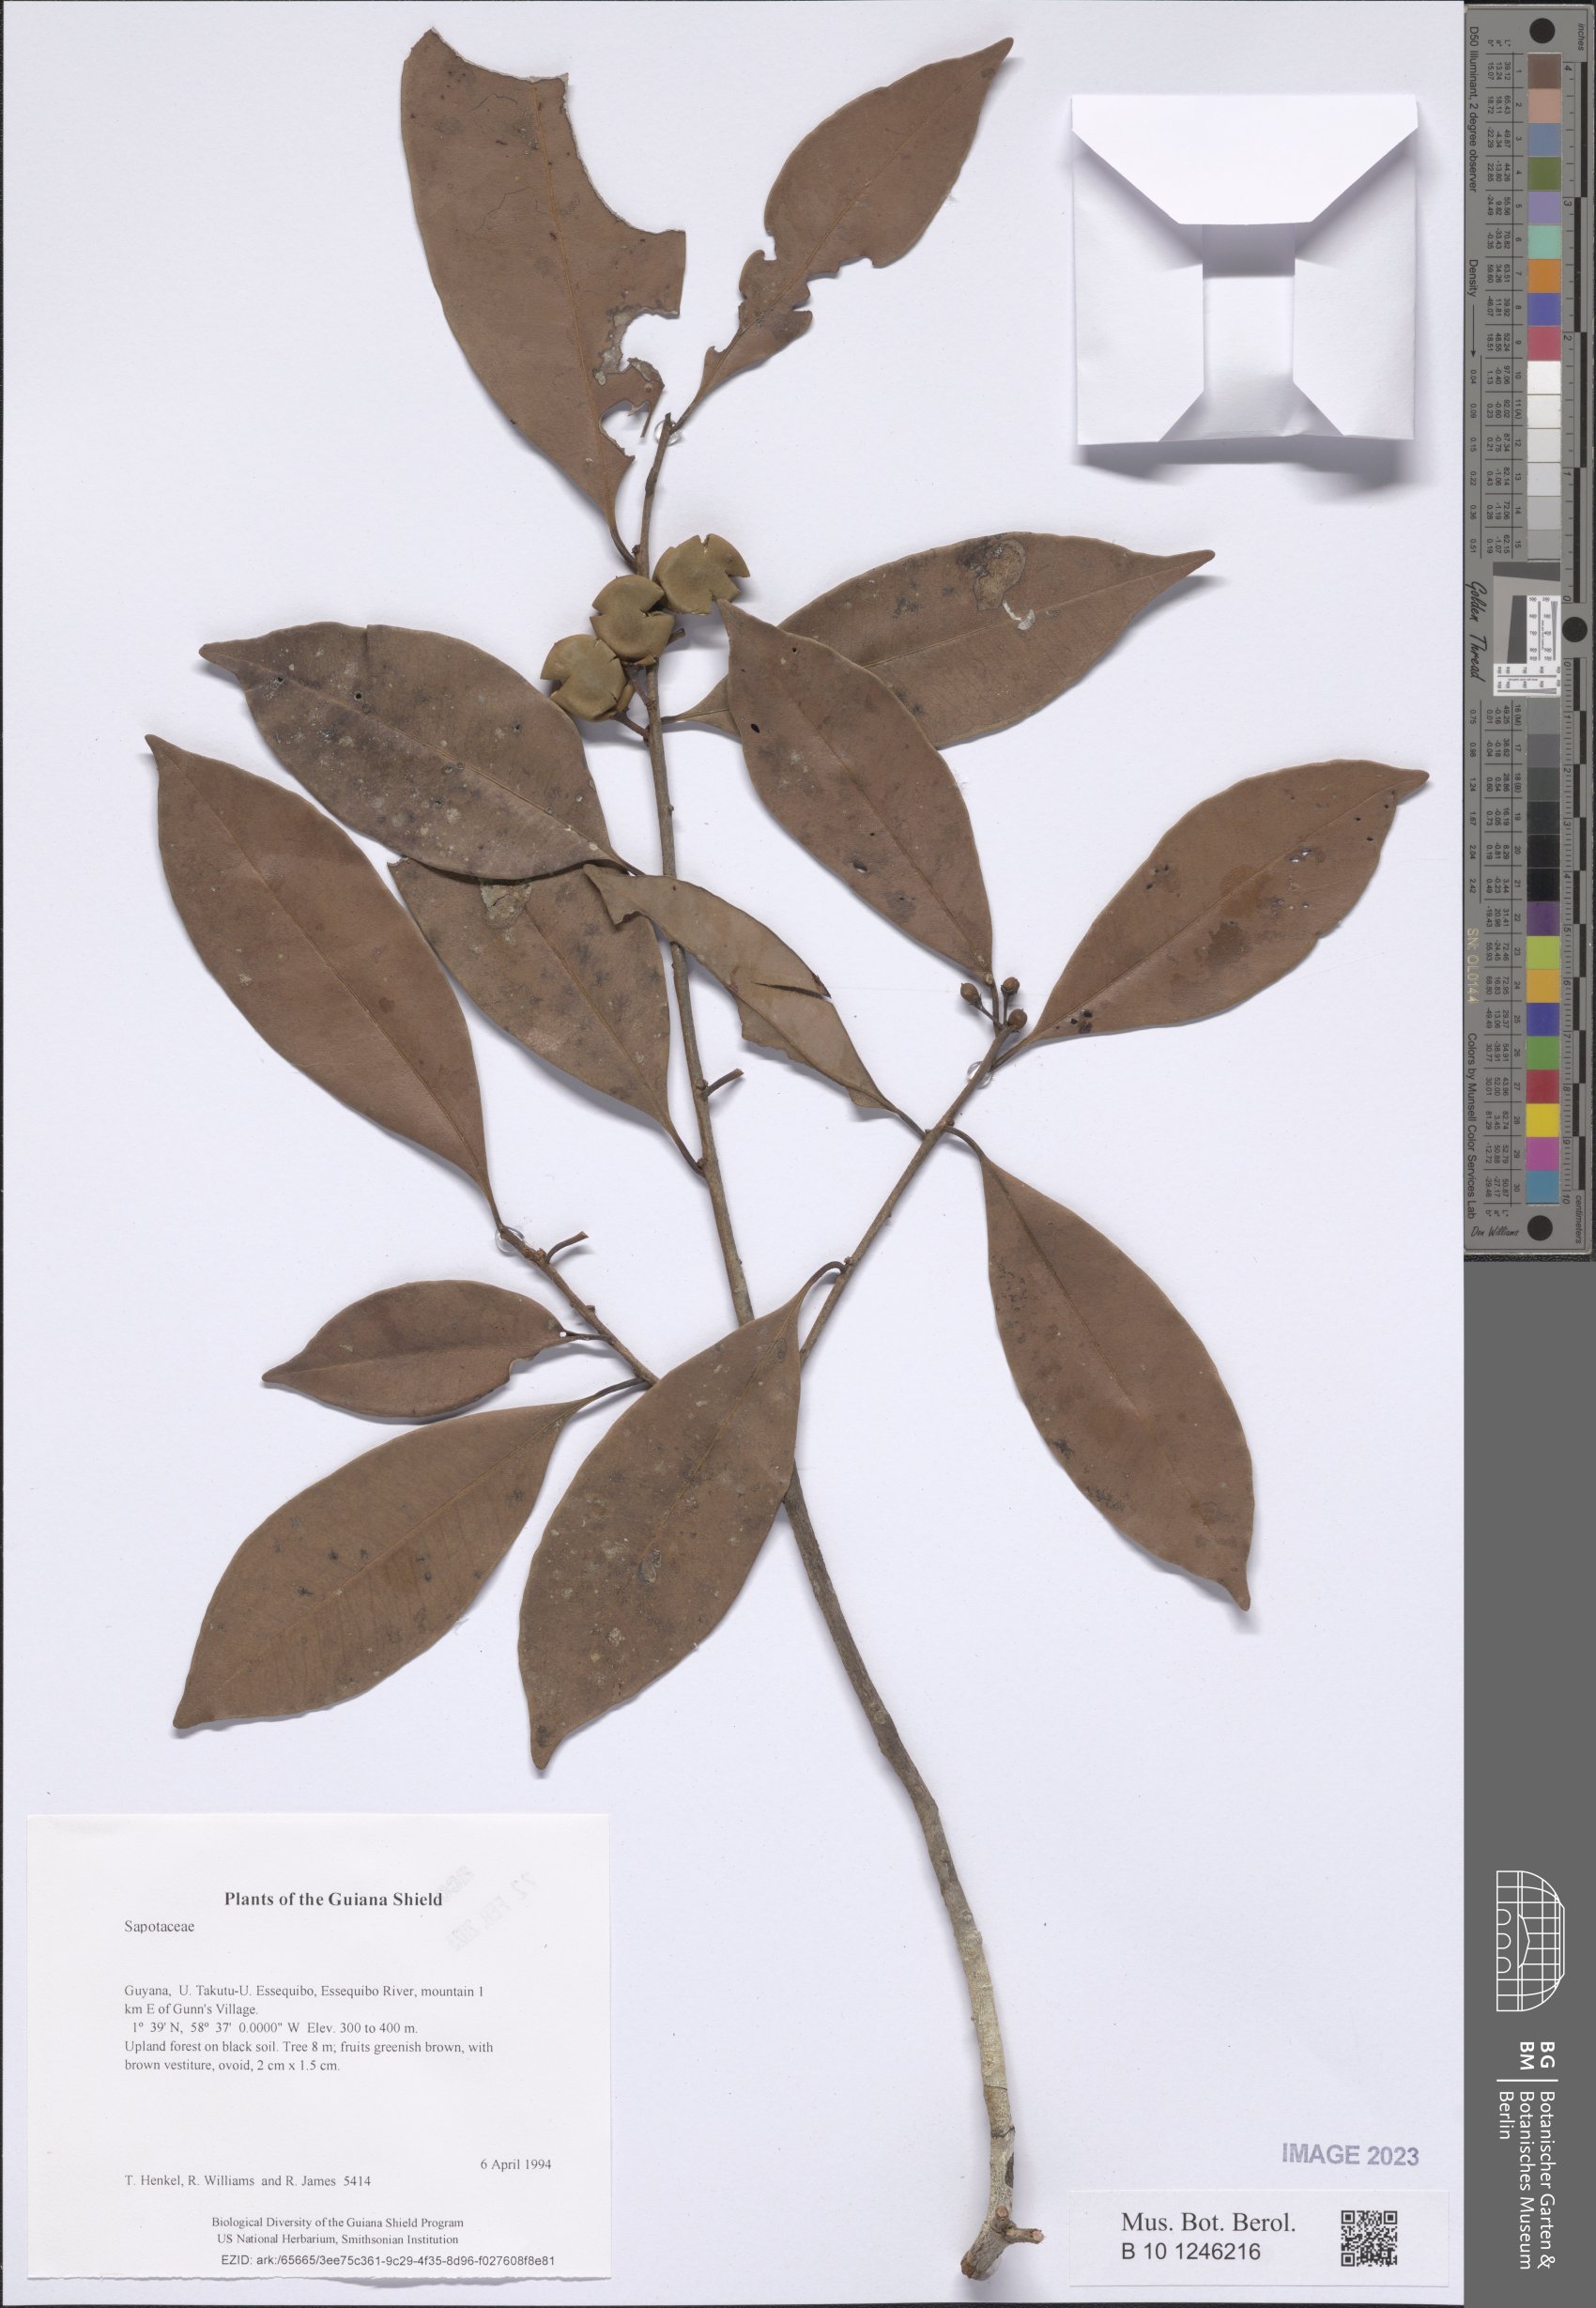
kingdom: Plantae
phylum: Tracheophyta
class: Magnoliopsida
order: Ericales
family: Sapotaceae
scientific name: Sapotaceae
